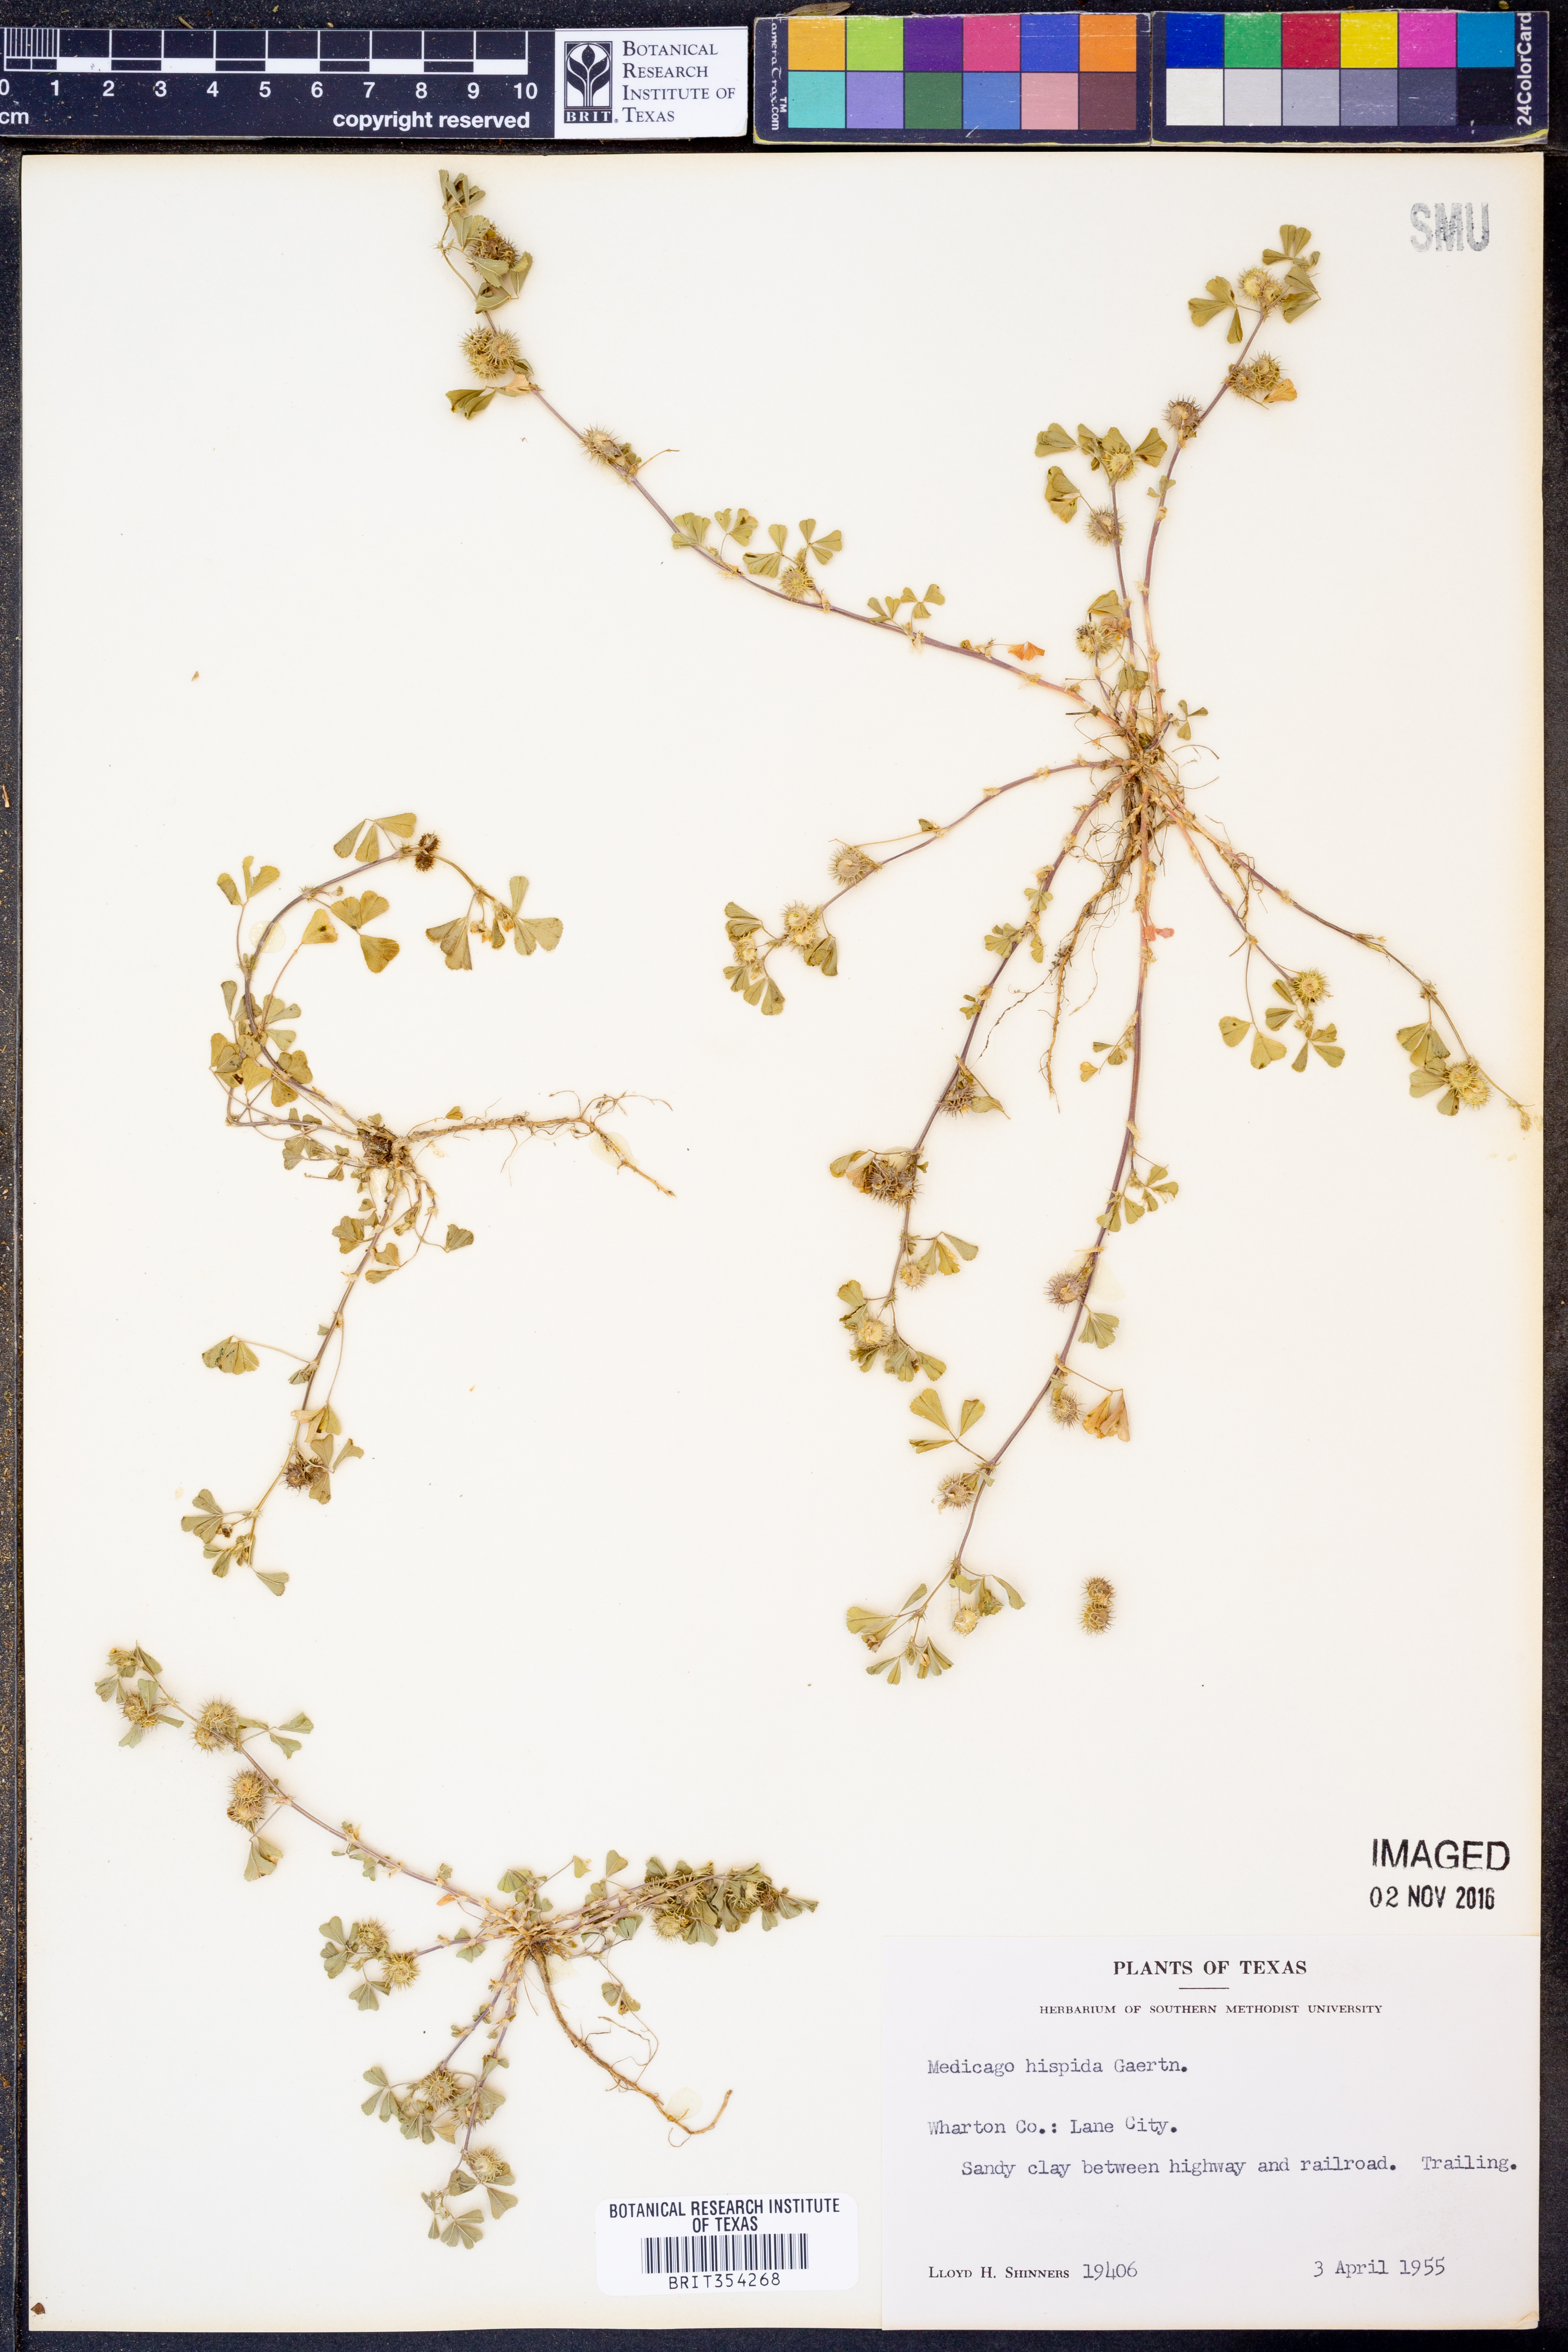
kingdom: Plantae
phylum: Tracheophyta
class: Magnoliopsida
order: Fabales
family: Fabaceae
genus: Medicago
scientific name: Medicago polymorpha
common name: Burclover
